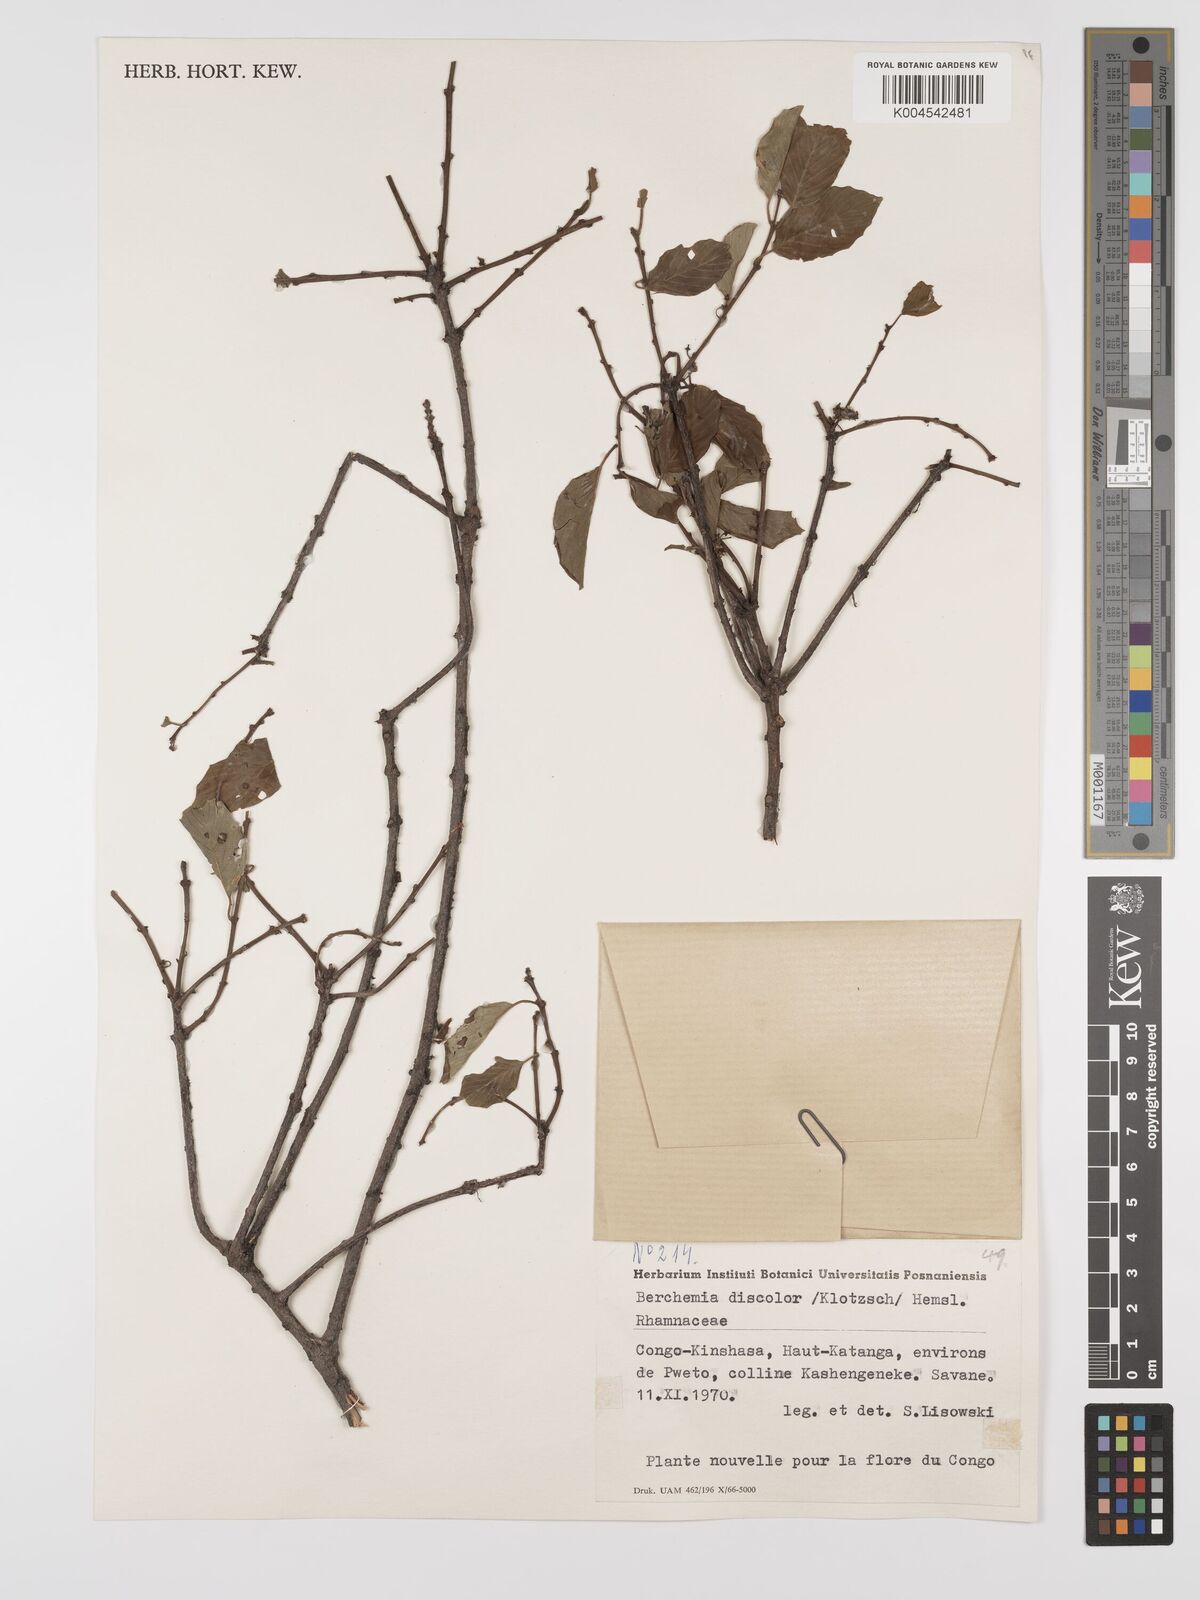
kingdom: Plantae
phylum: Tracheophyta
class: Magnoliopsida
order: Rosales
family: Rhamnaceae
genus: Phyllogeiton
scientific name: Phyllogeiton discolor
